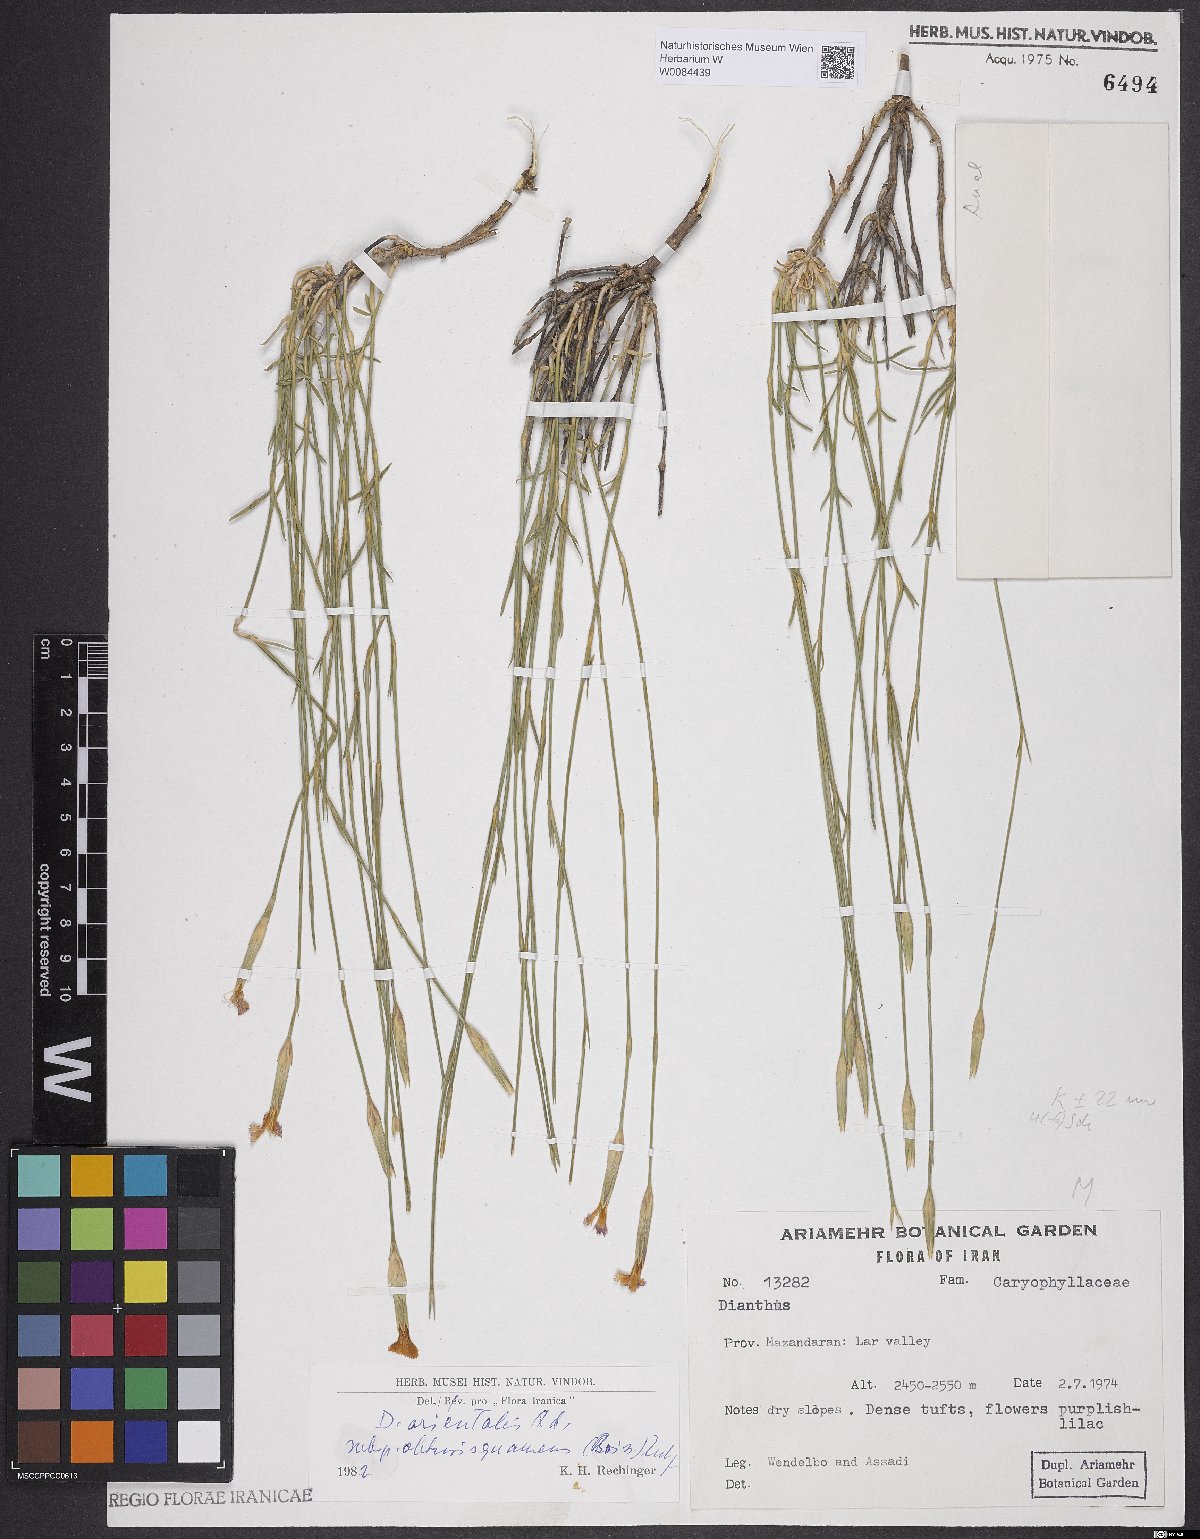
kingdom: Plantae
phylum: Tracheophyta
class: Magnoliopsida
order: Caryophyllales
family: Caryophyllaceae
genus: Dianthus
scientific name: Dianthus orientalis
